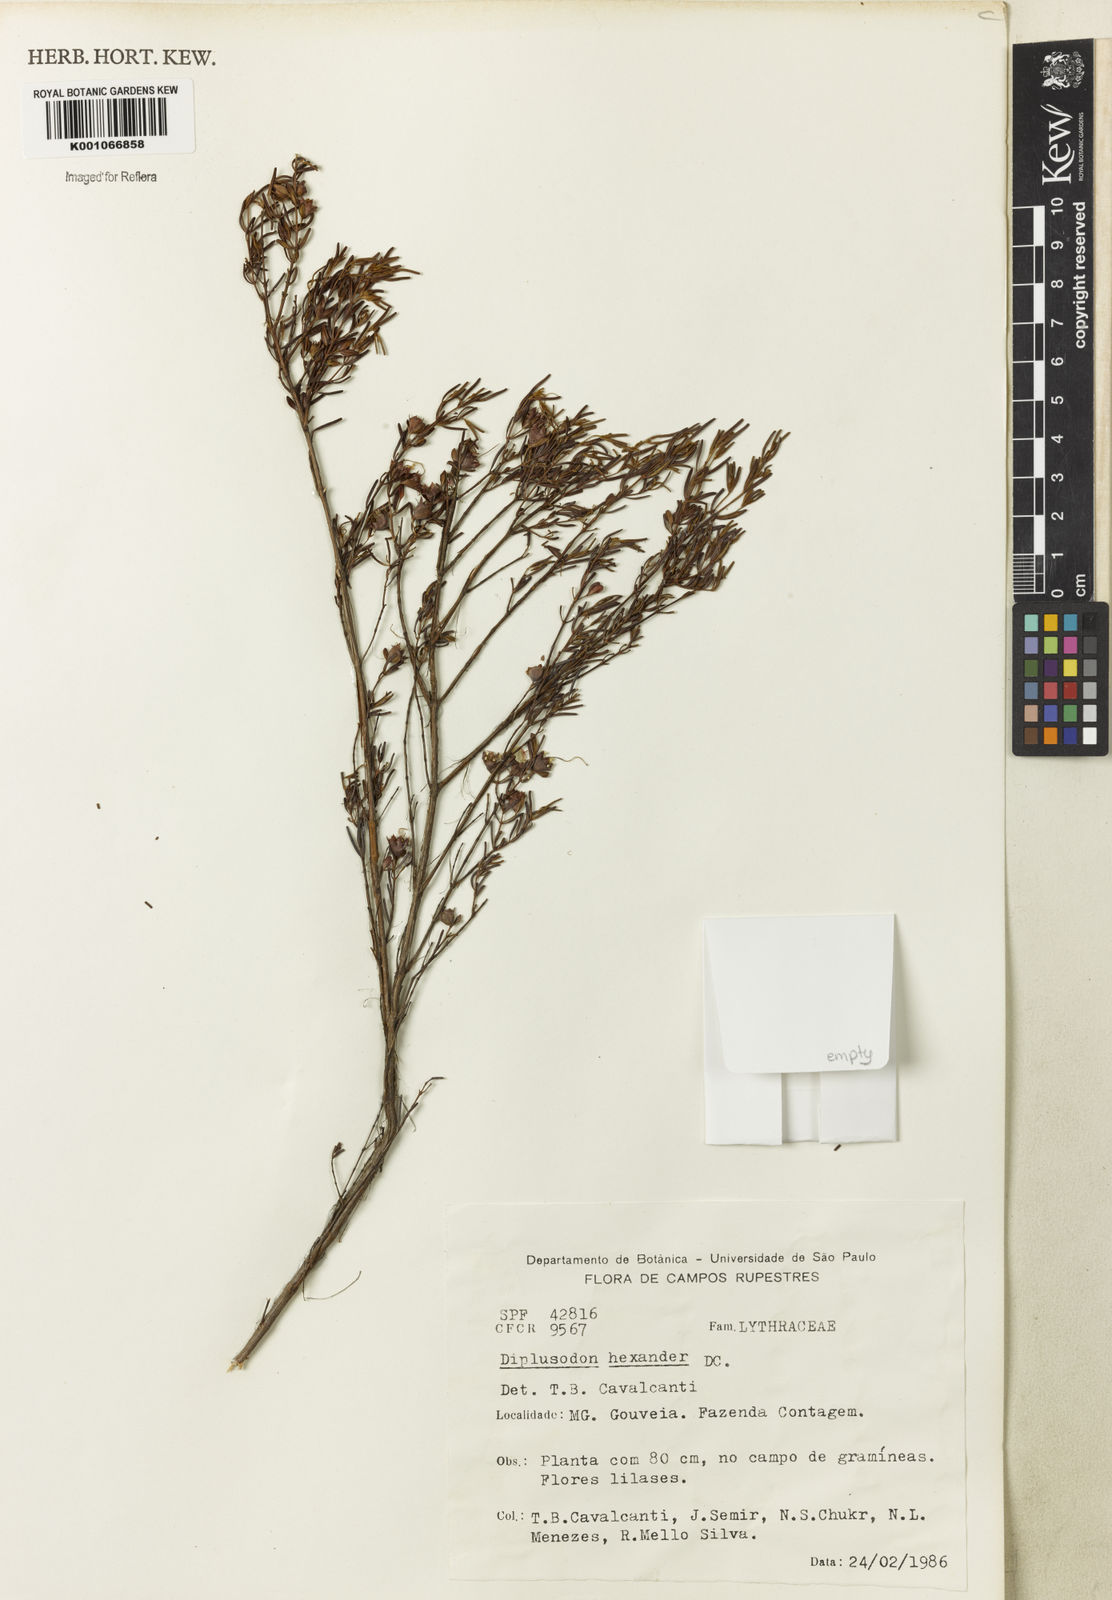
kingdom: Plantae
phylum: Tracheophyta
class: Magnoliopsida
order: Myrtales
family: Lythraceae
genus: Diplusodon
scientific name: Diplusodon hexander
